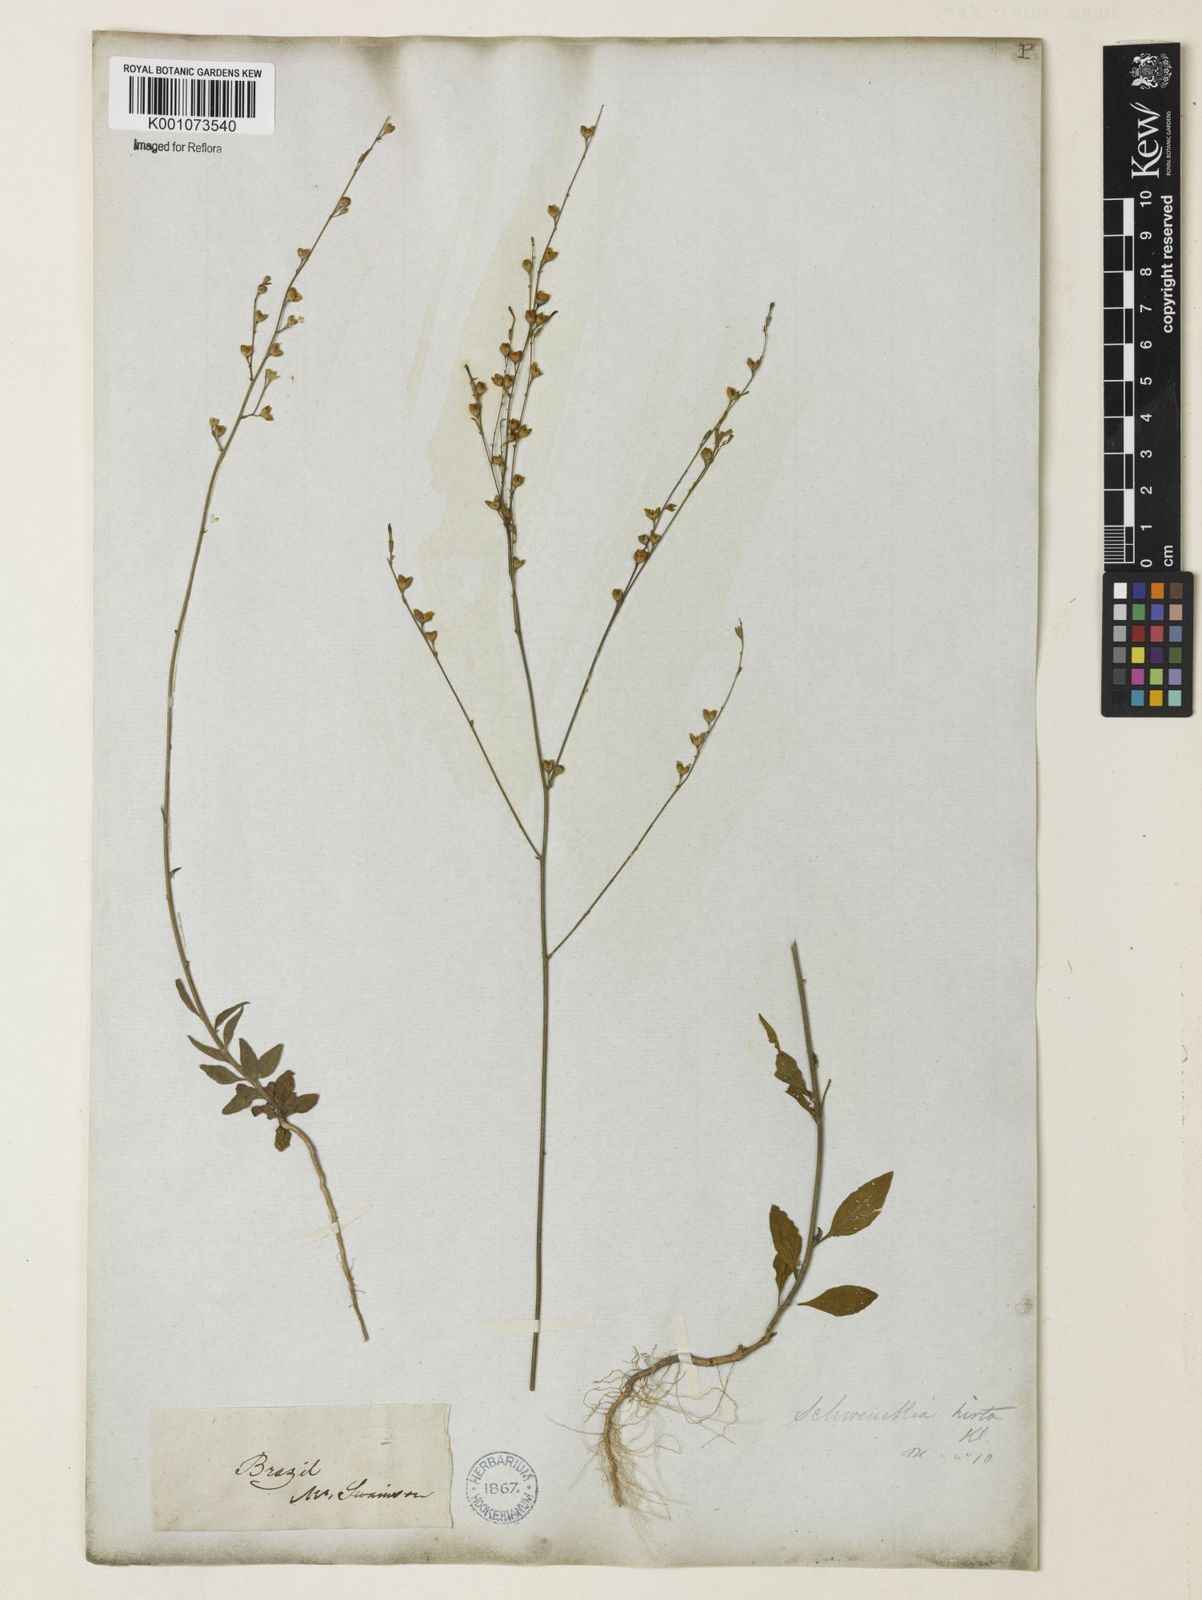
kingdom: Plantae
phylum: Tracheophyta
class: Magnoliopsida
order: Solanales
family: Solanaceae
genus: Schwenckia
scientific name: Schwenckia americana
